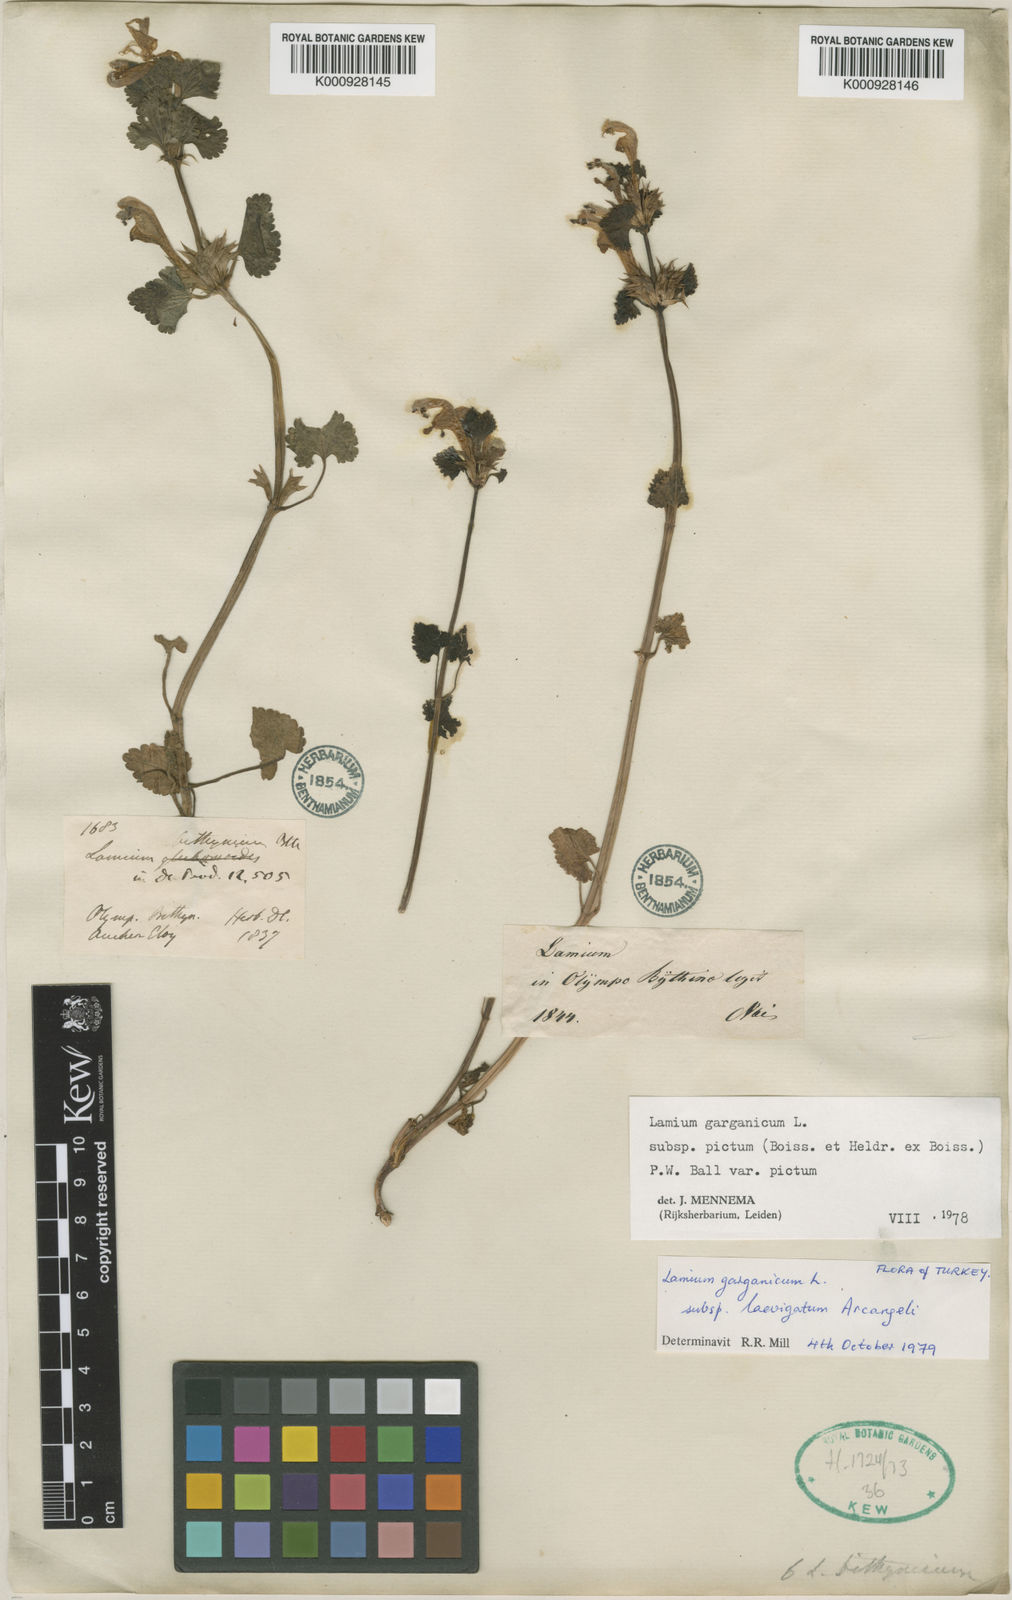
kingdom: Plantae
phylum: Tracheophyta
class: Magnoliopsida
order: Lamiales
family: Lamiaceae
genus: Lamium
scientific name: Lamium garganicum
